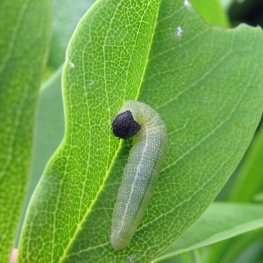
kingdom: Animalia
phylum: Arthropoda
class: Insecta
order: Lepidoptera
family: Hesperiidae
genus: Gesta
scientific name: Gesta
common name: Wild Indigo Duskywing
